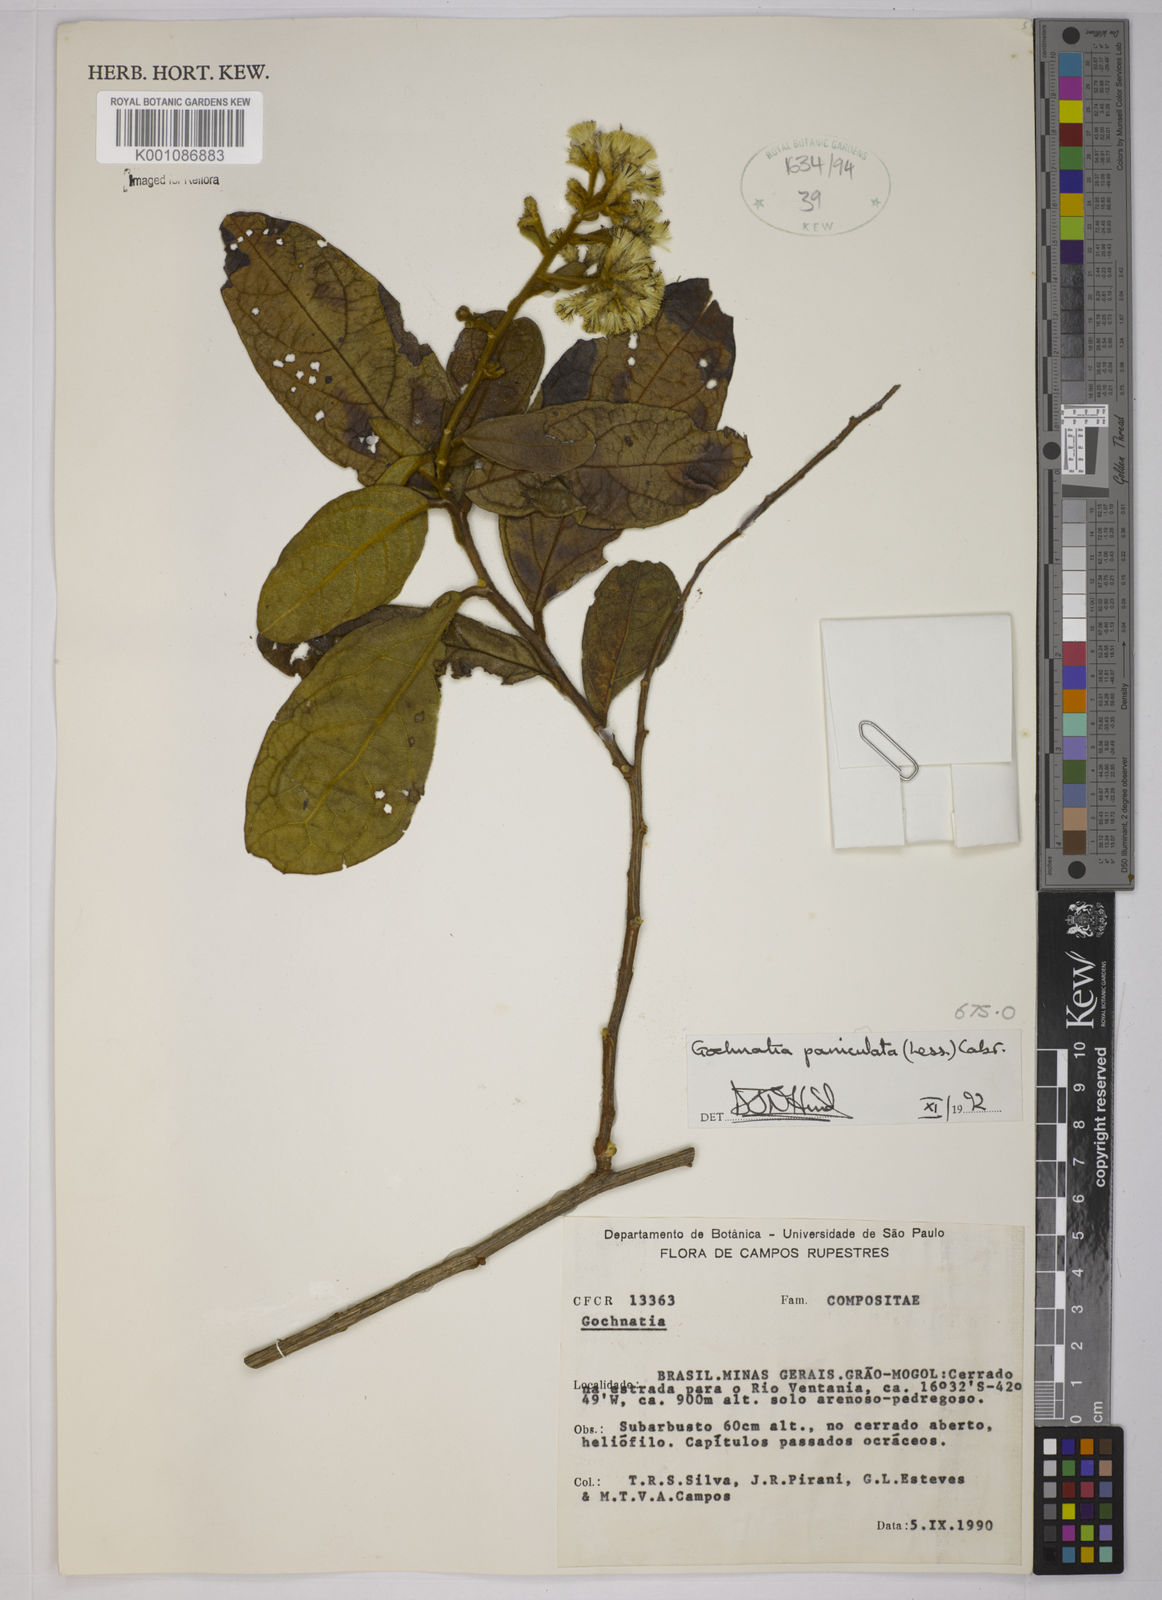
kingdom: Plantae
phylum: Tracheophyta
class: Magnoliopsida
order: Asterales
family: Asteraceae
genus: Moquiniastrum
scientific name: Moquiniastrum paniculatum
